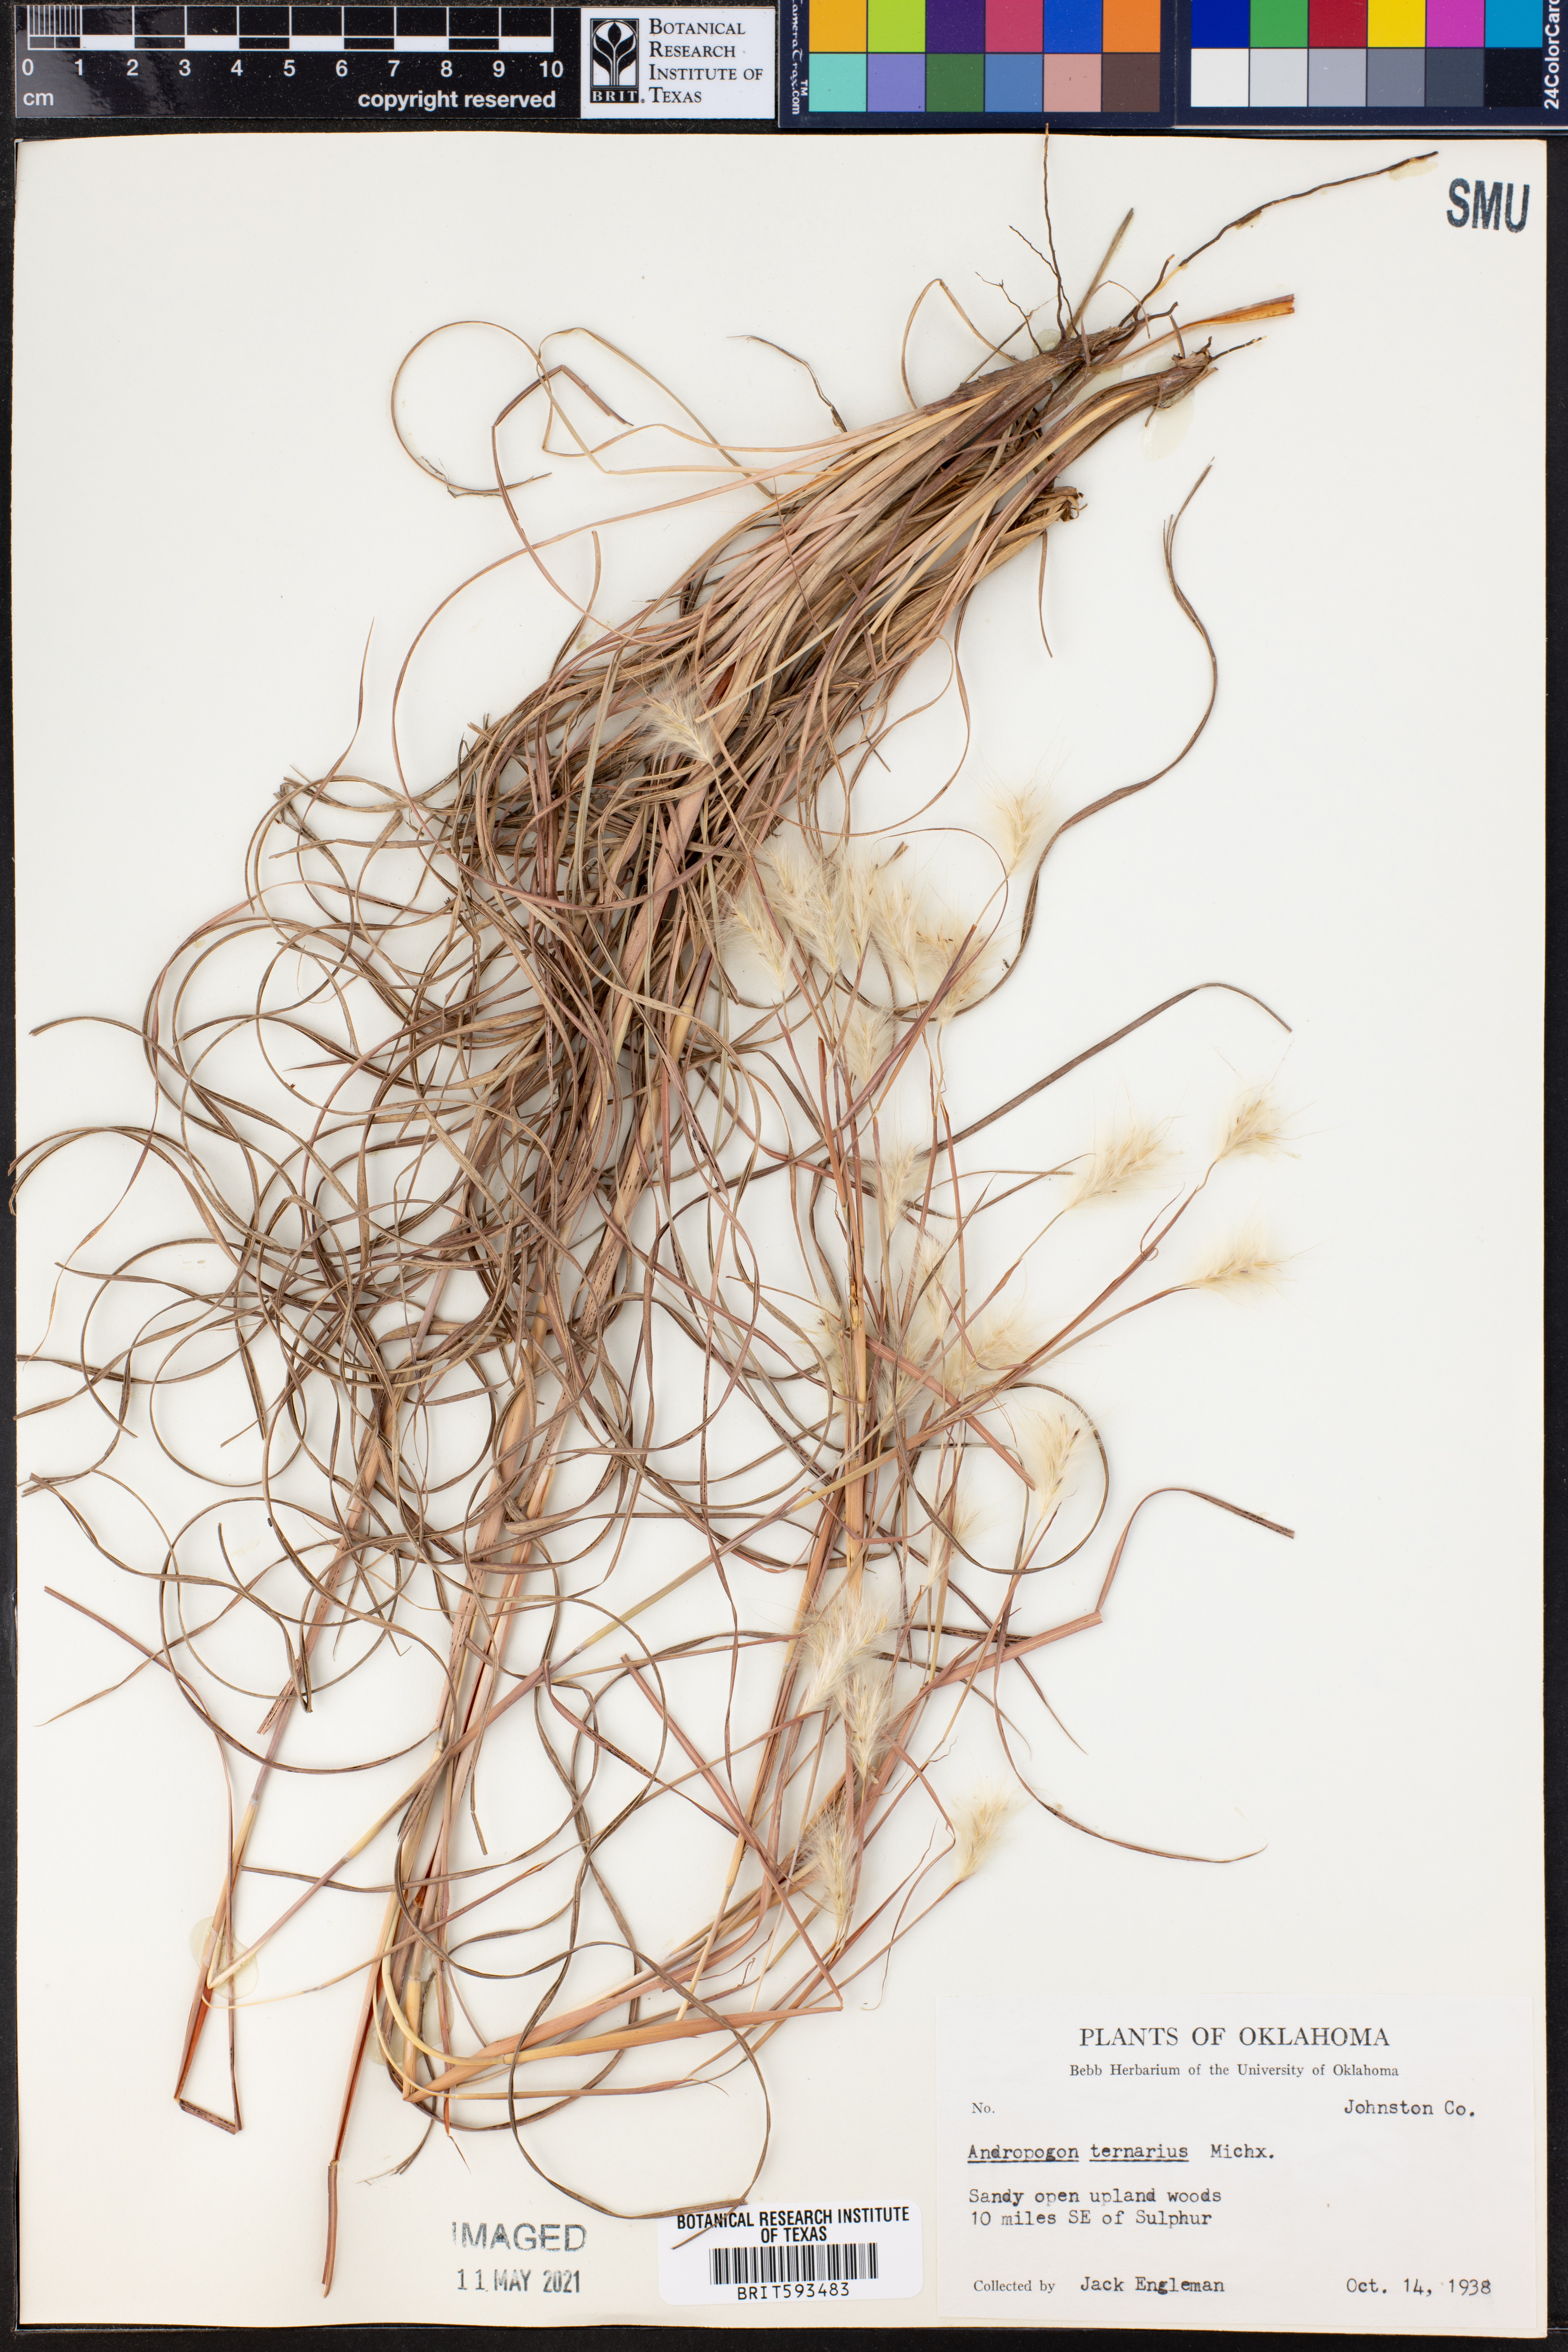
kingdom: Plantae
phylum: Tracheophyta
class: Liliopsida
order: Poales
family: Poaceae
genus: Andropogon
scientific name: Andropogon ternarius
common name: Split bluestem
